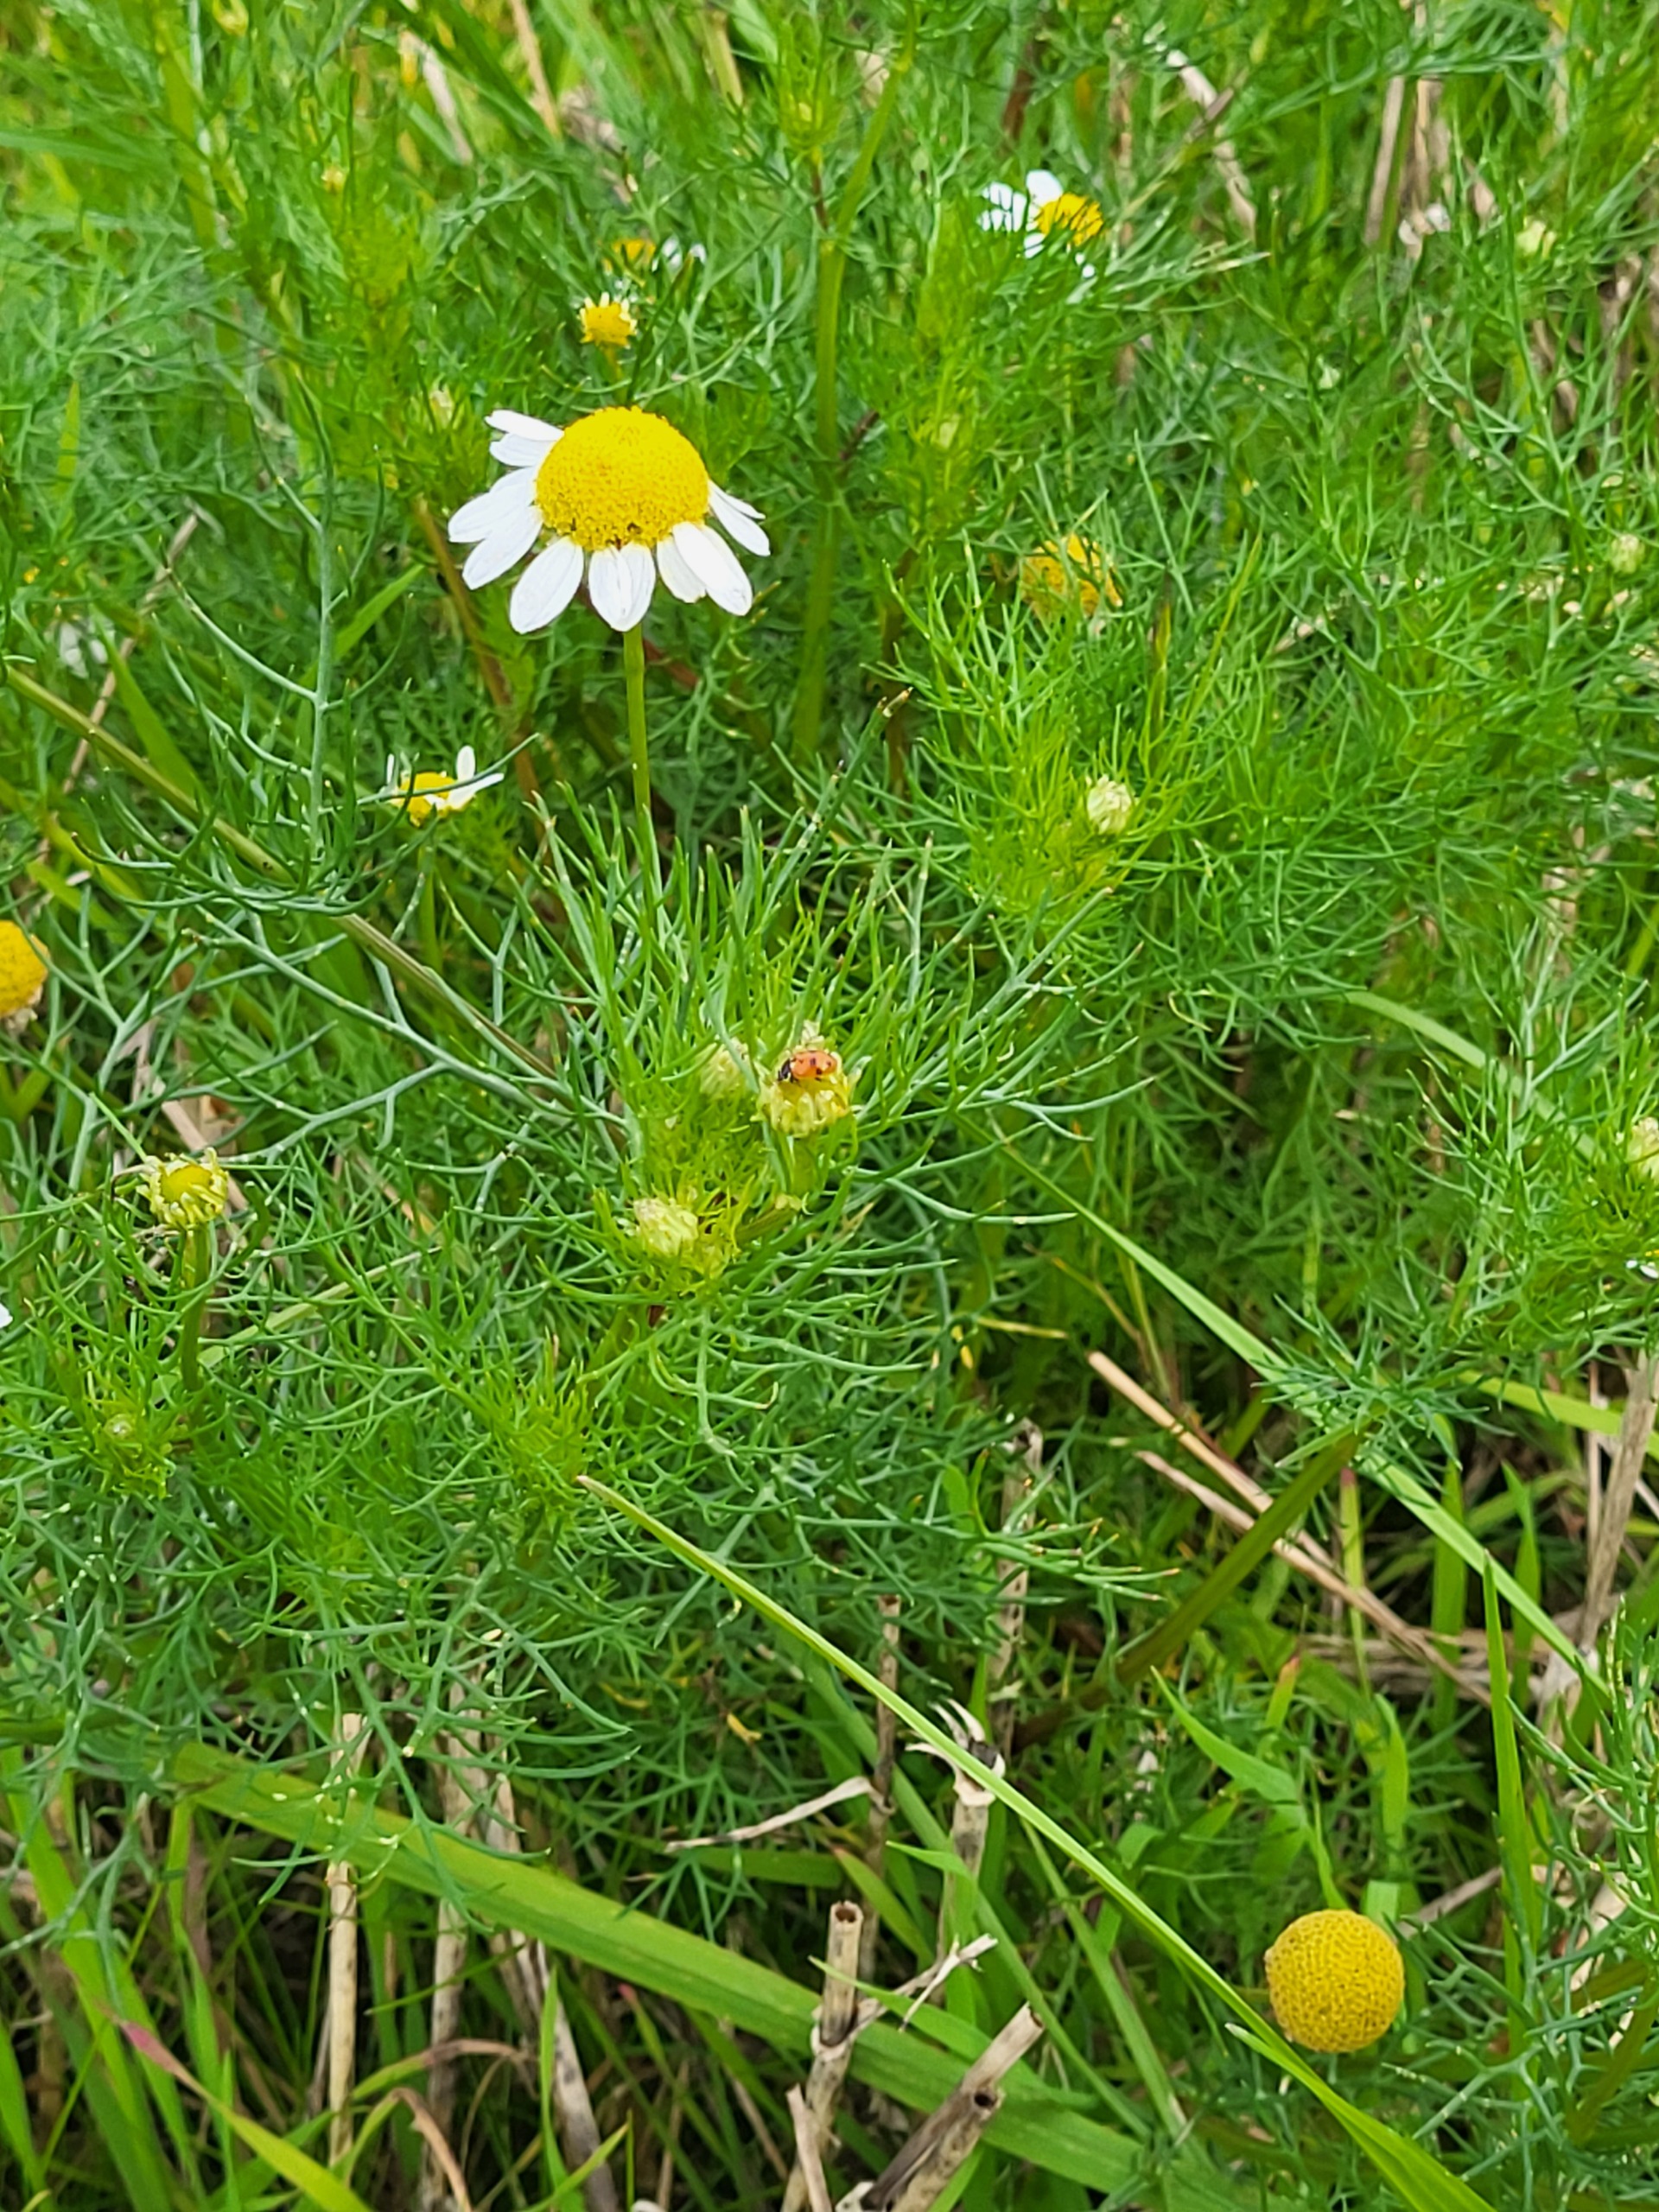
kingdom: Plantae
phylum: Tracheophyta
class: Magnoliopsida
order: Asterales
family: Asteraceae
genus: Tripleurospermum
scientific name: Tripleurospermum inodorum
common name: Lugtløs kamille
